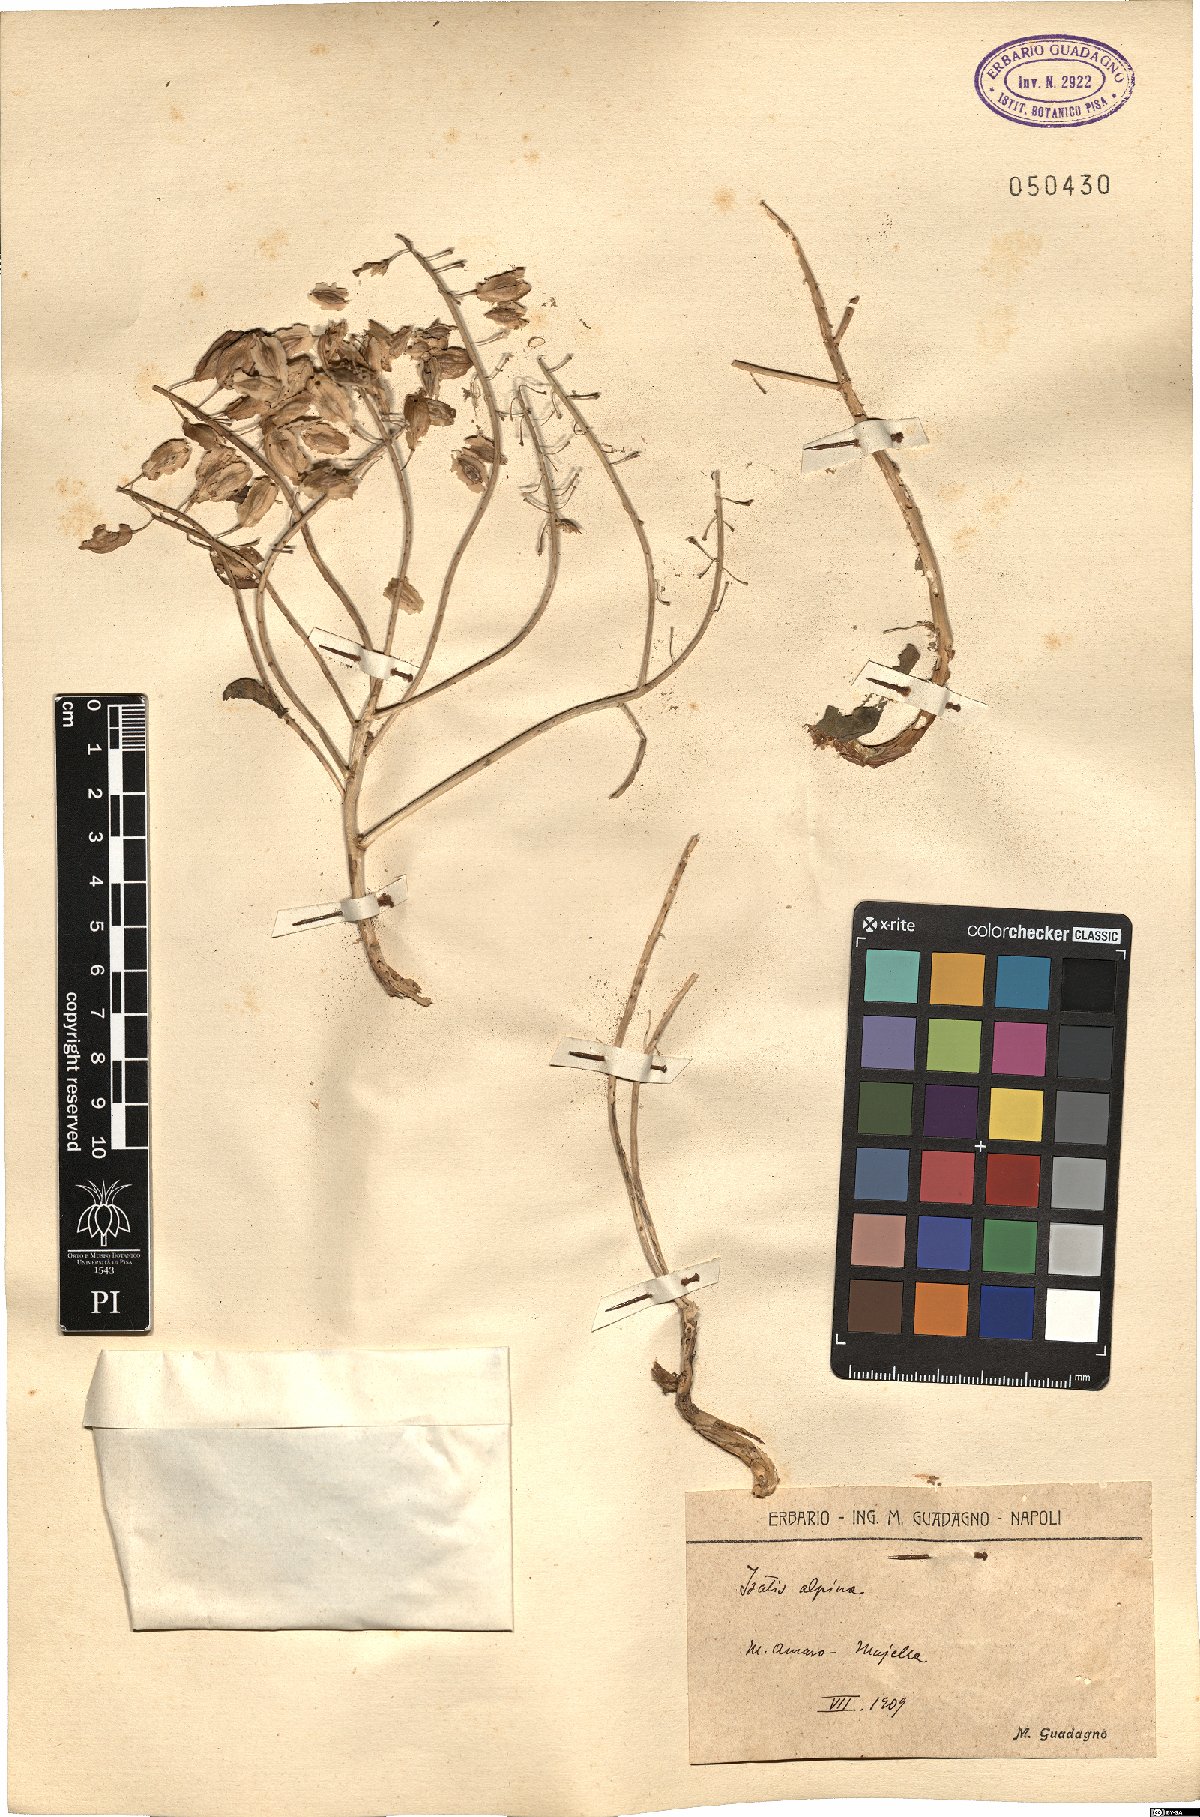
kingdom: Plantae
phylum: Tracheophyta
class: Magnoliopsida
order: Brassicales
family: Brassicaceae
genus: Isatis
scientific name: Isatis tinctoria
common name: Woad
